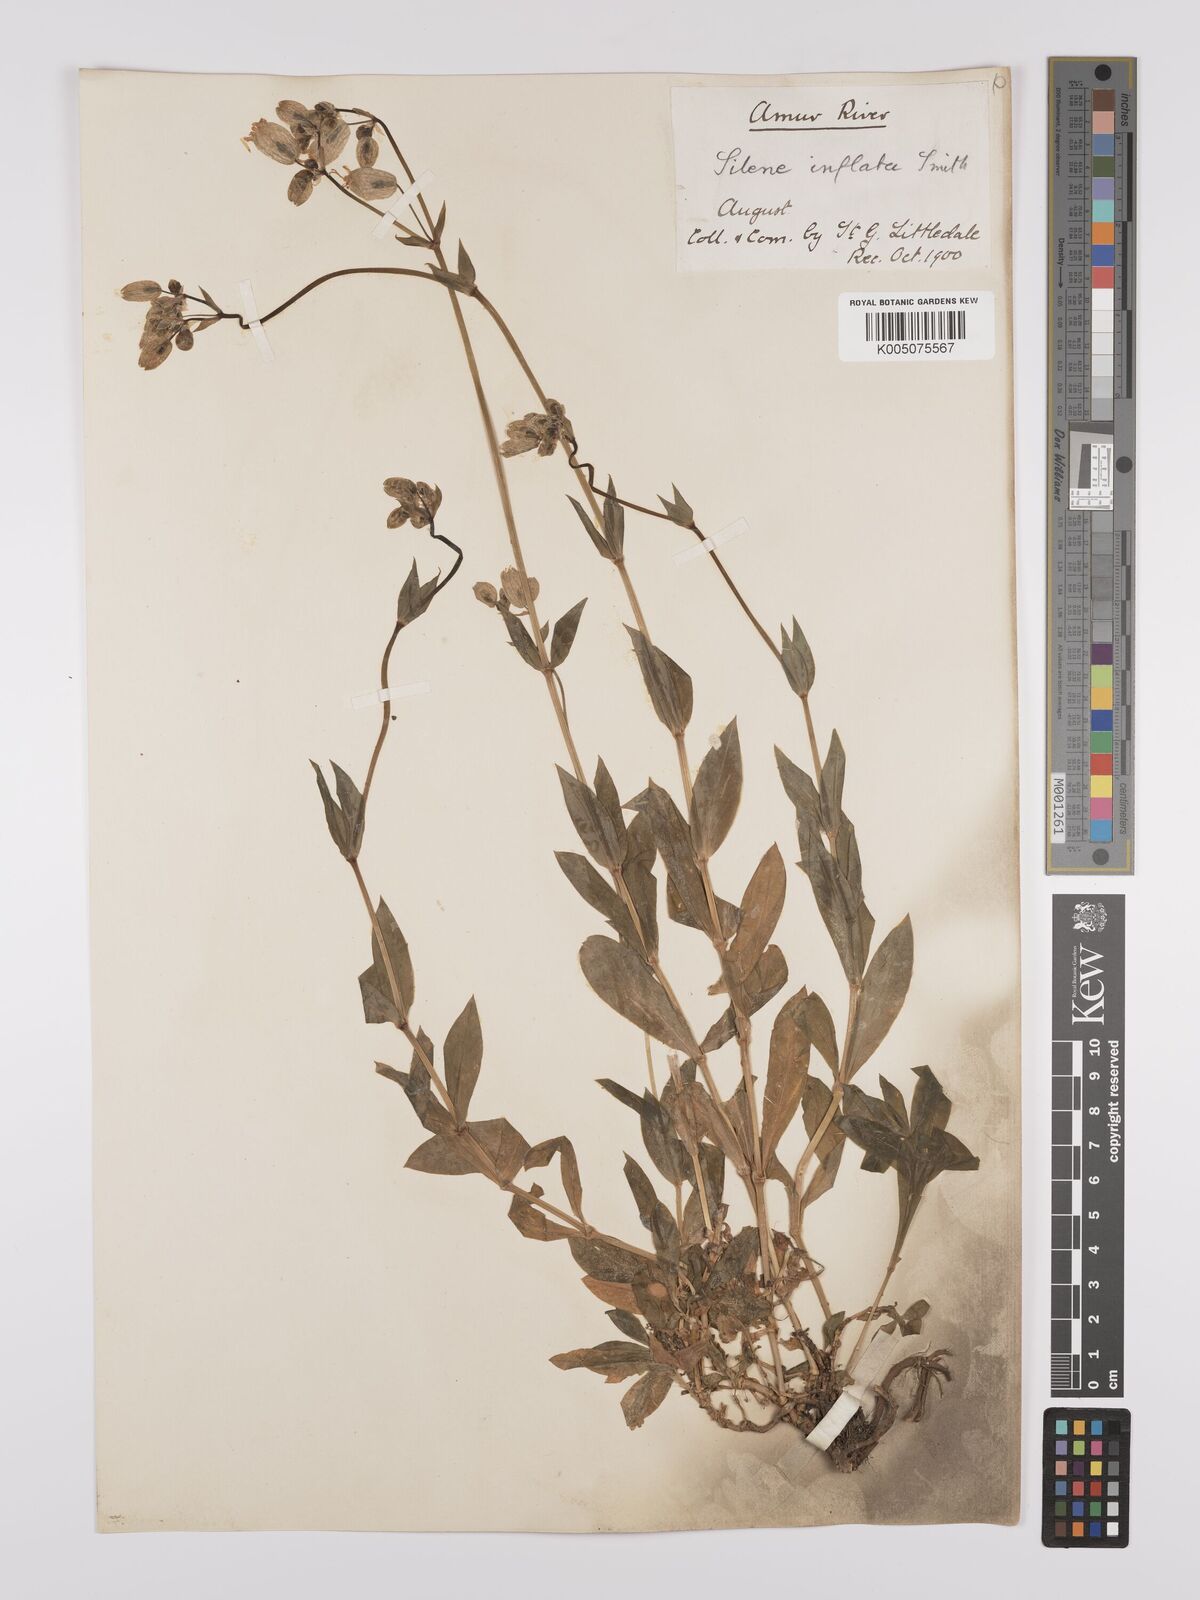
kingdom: Plantae
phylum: Tracheophyta
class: Magnoliopsida
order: Caryophyllales
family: Caryophyllaceae
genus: Silene
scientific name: Silene vulgaris
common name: Bladder campion
